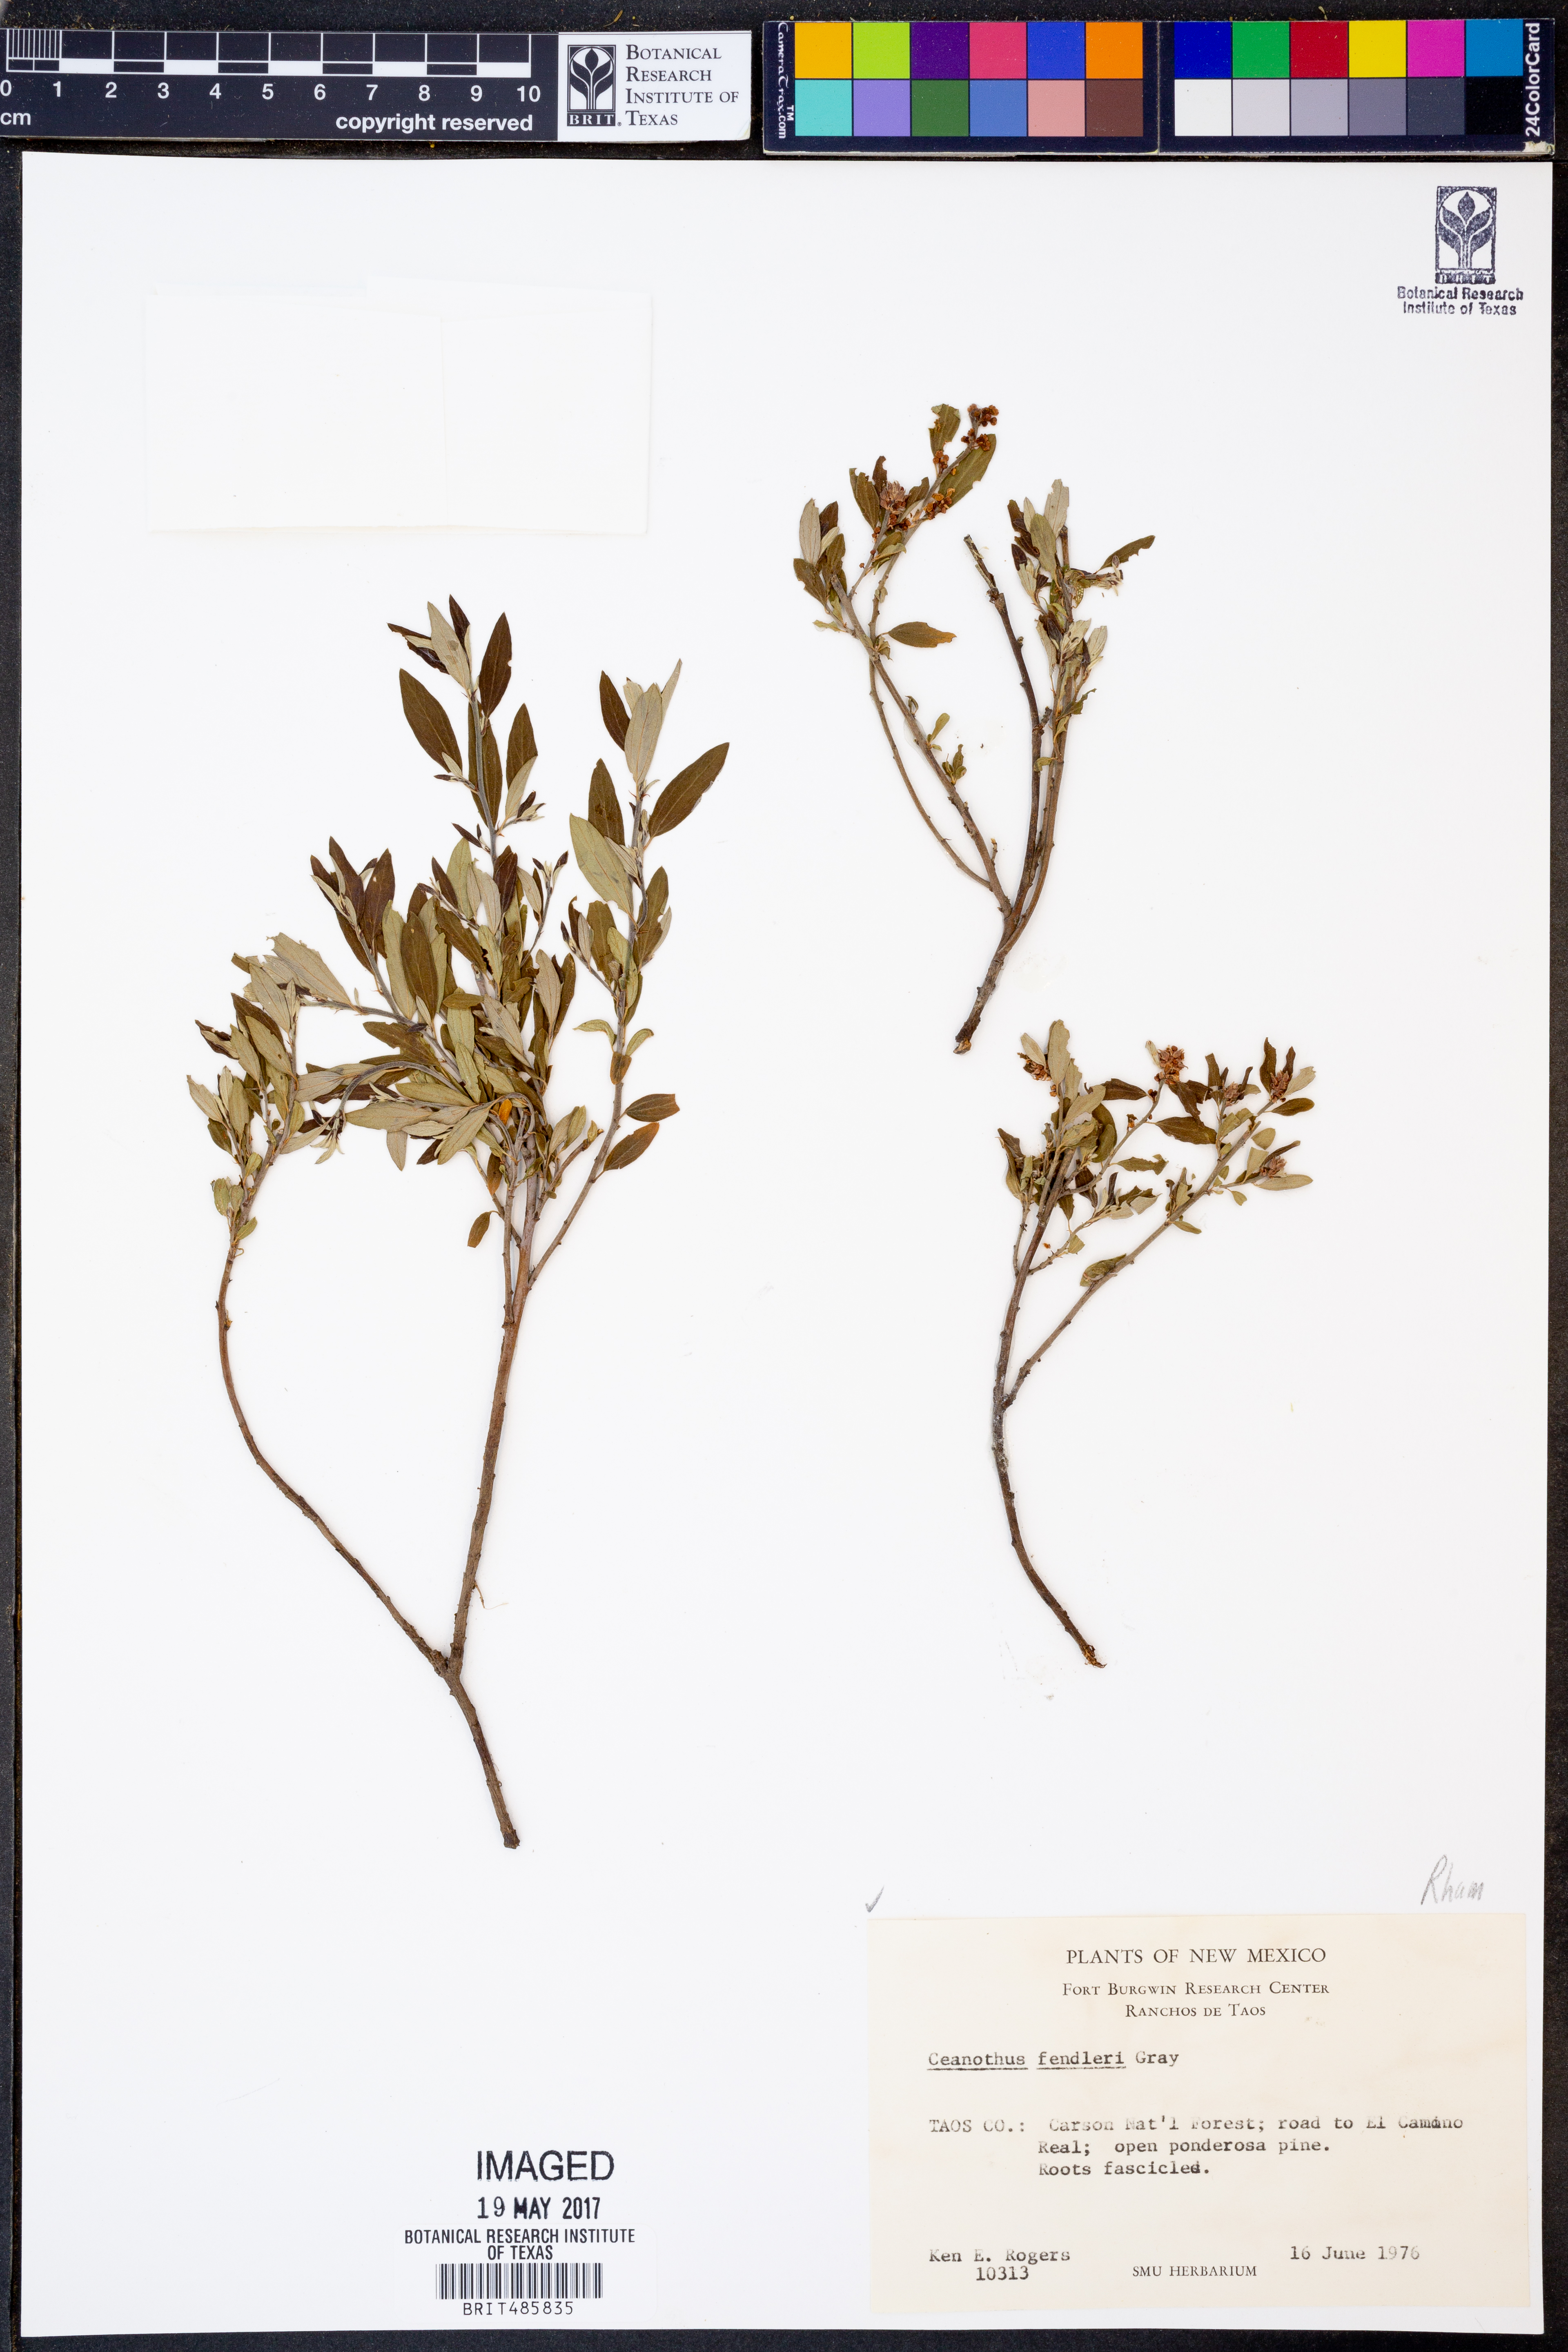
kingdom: Plantae
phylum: Tracheophyta
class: Magnoliopsida
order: Rosales
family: Rhamnaceae
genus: Ceanothus
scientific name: Ceanothus fendleri
